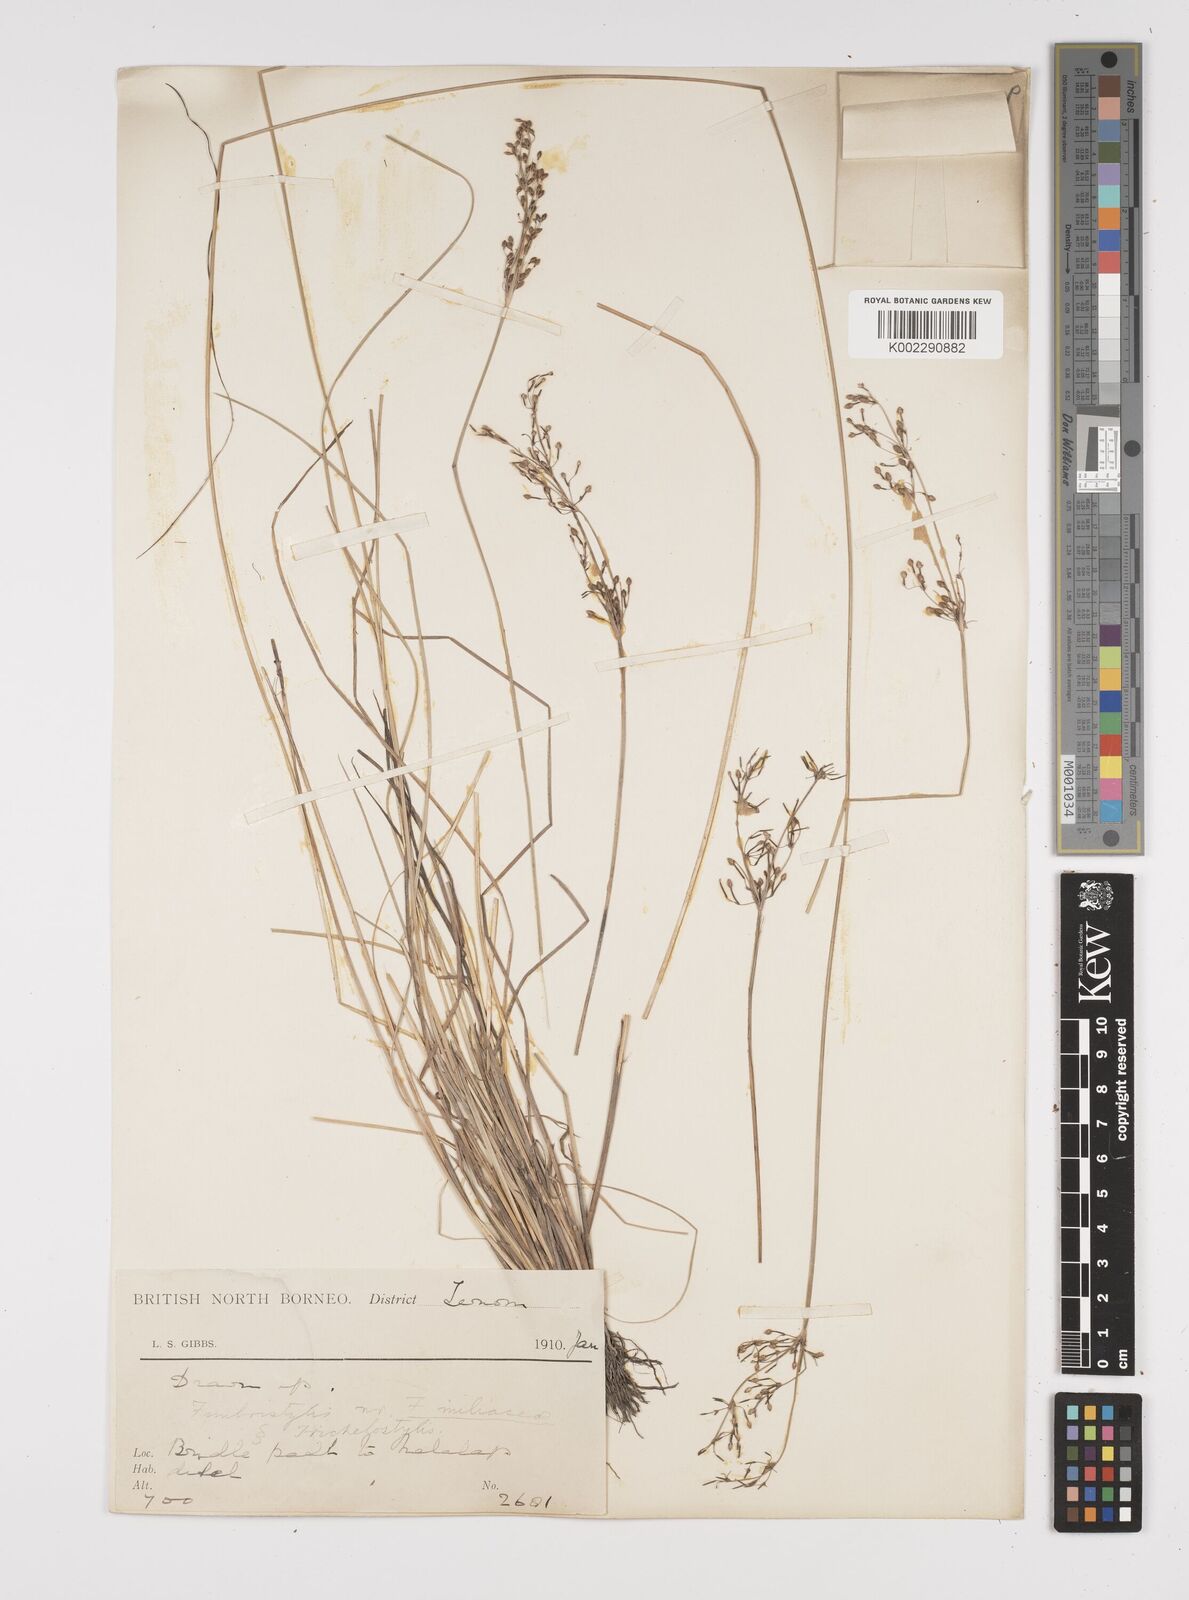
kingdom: Plantae
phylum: Tracheophyta
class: Liliopsida
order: Poales
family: Cyperaceae
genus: Fimbristylis
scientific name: Fimbristylis littoralis
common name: Fimbry
